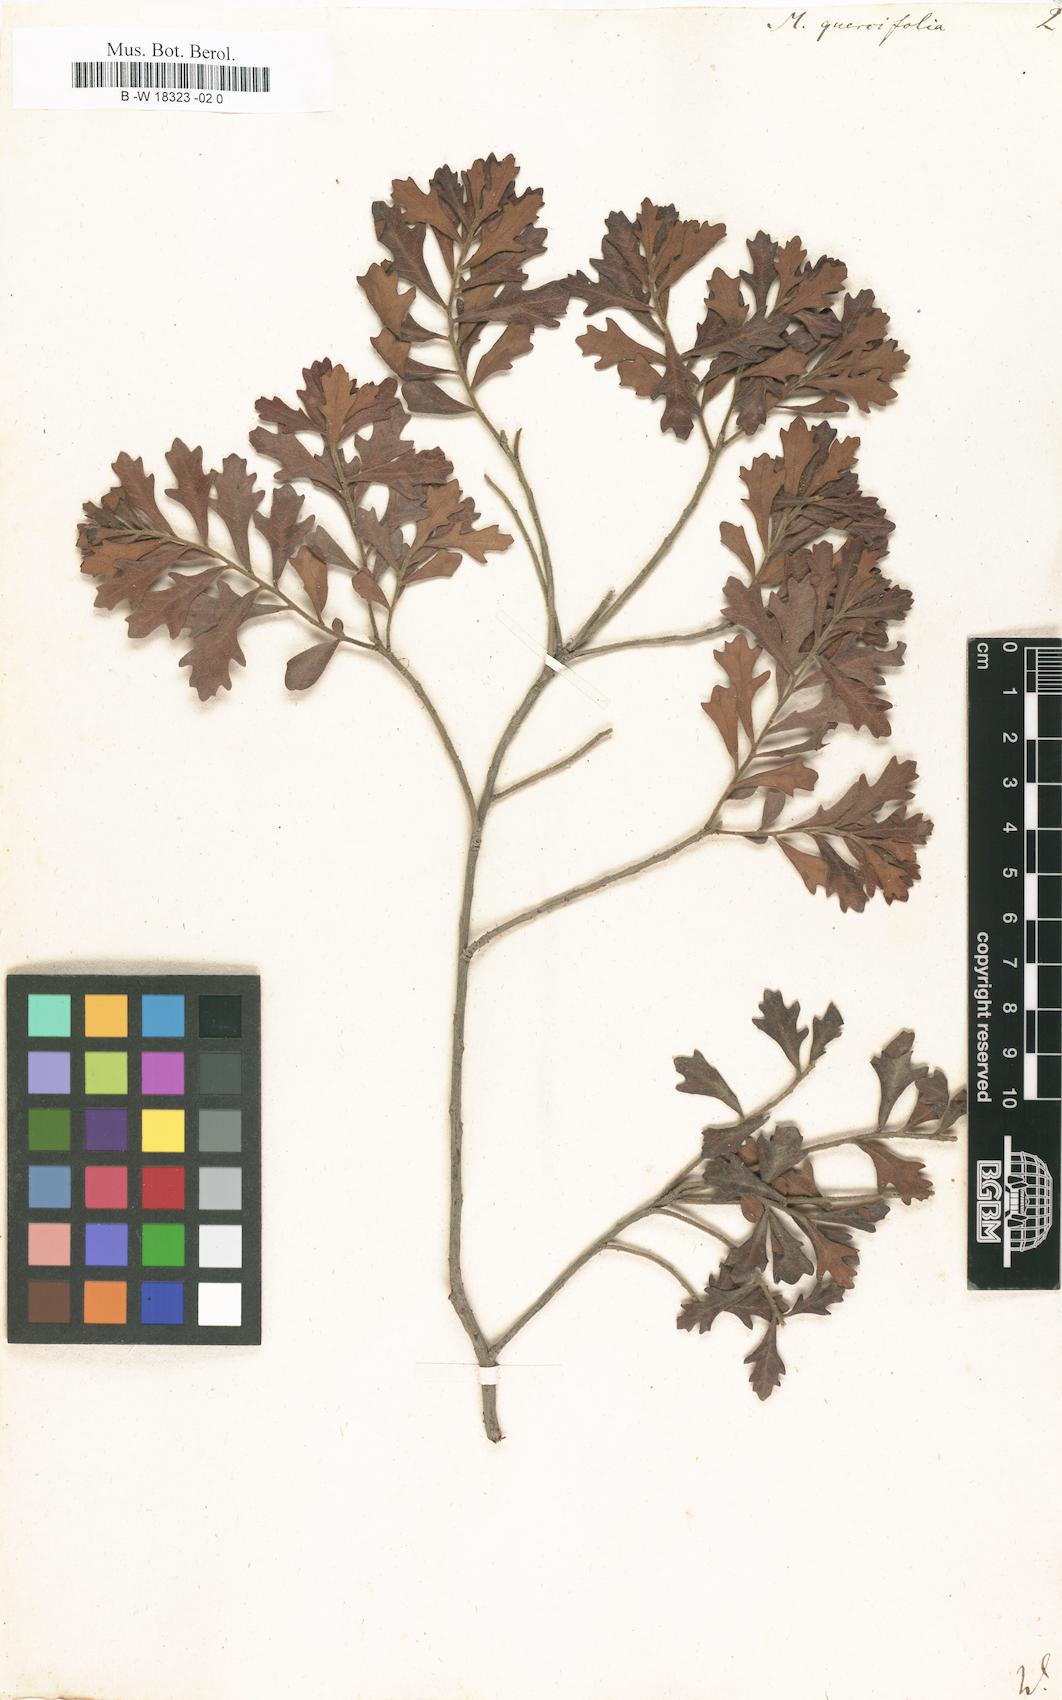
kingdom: Plantae
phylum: Tracheophyta
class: Magnoliopsida
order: Fagales
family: Myricaceae
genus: Morella
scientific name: Morella quercifolia
